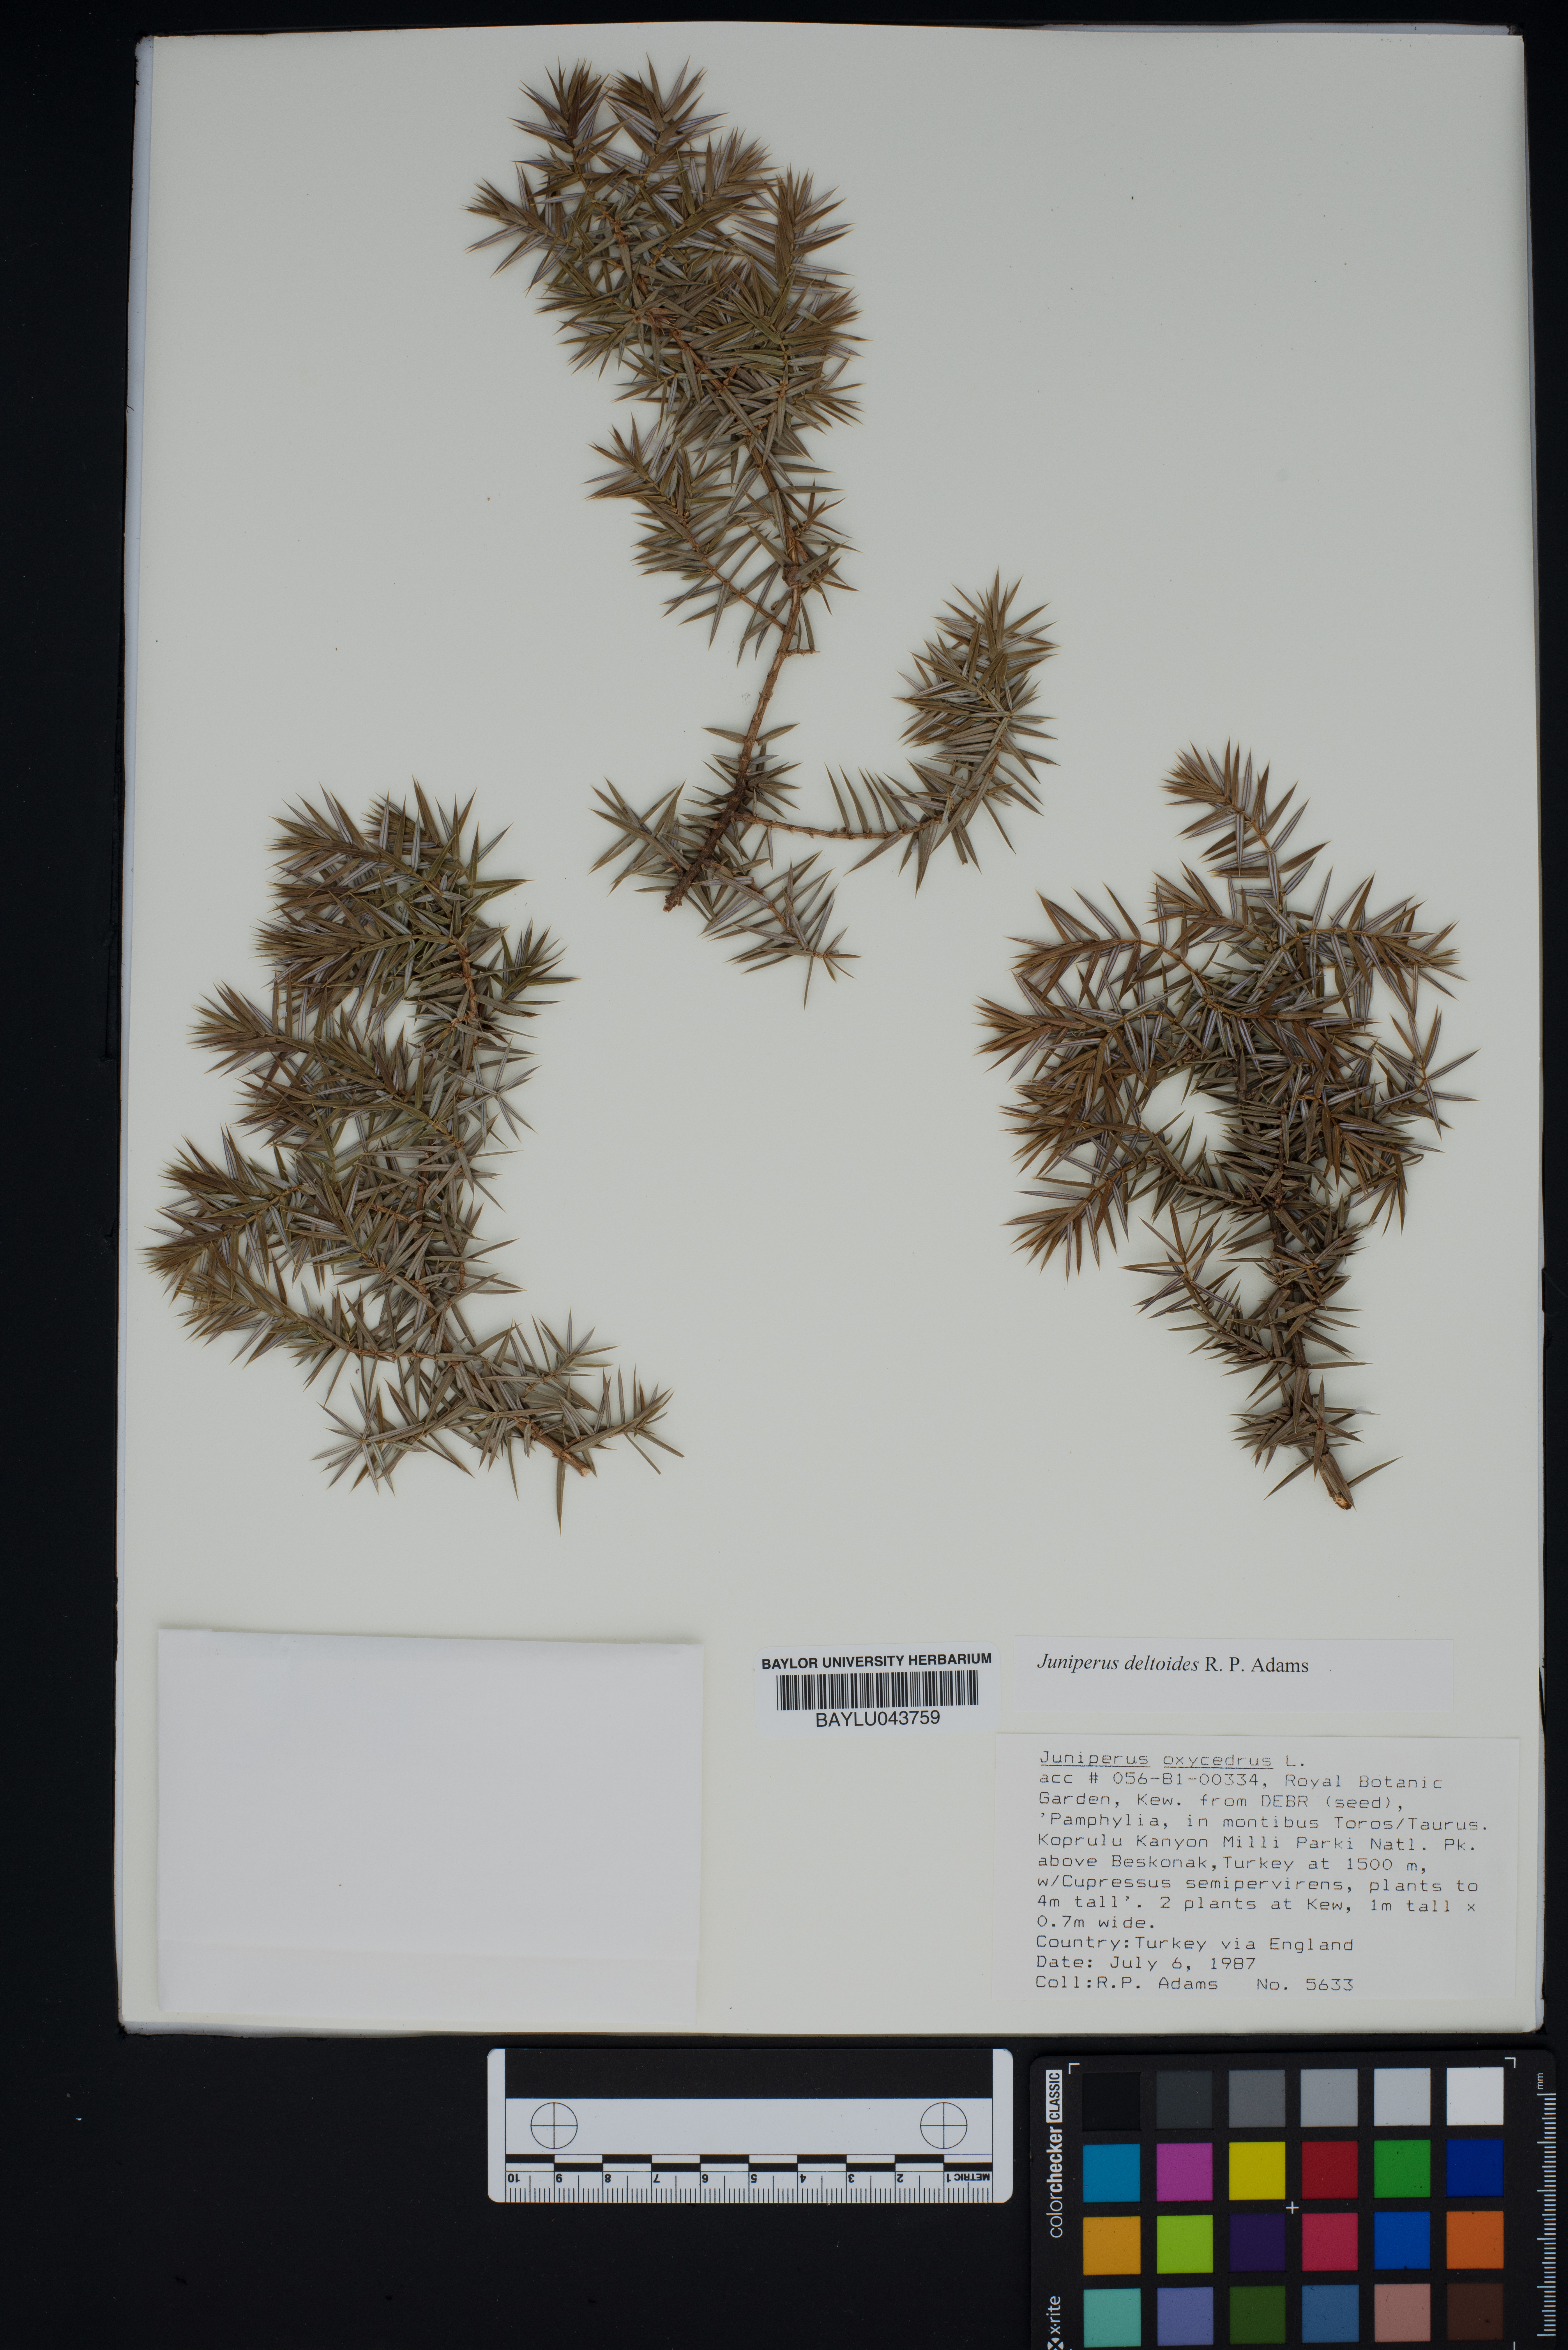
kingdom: Plantae
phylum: Tracheophyta
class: Pinopsida
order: Pinales
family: Cupressaceae
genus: Juniperus
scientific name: Juniperus oxycedrus
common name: Prickly juniper
